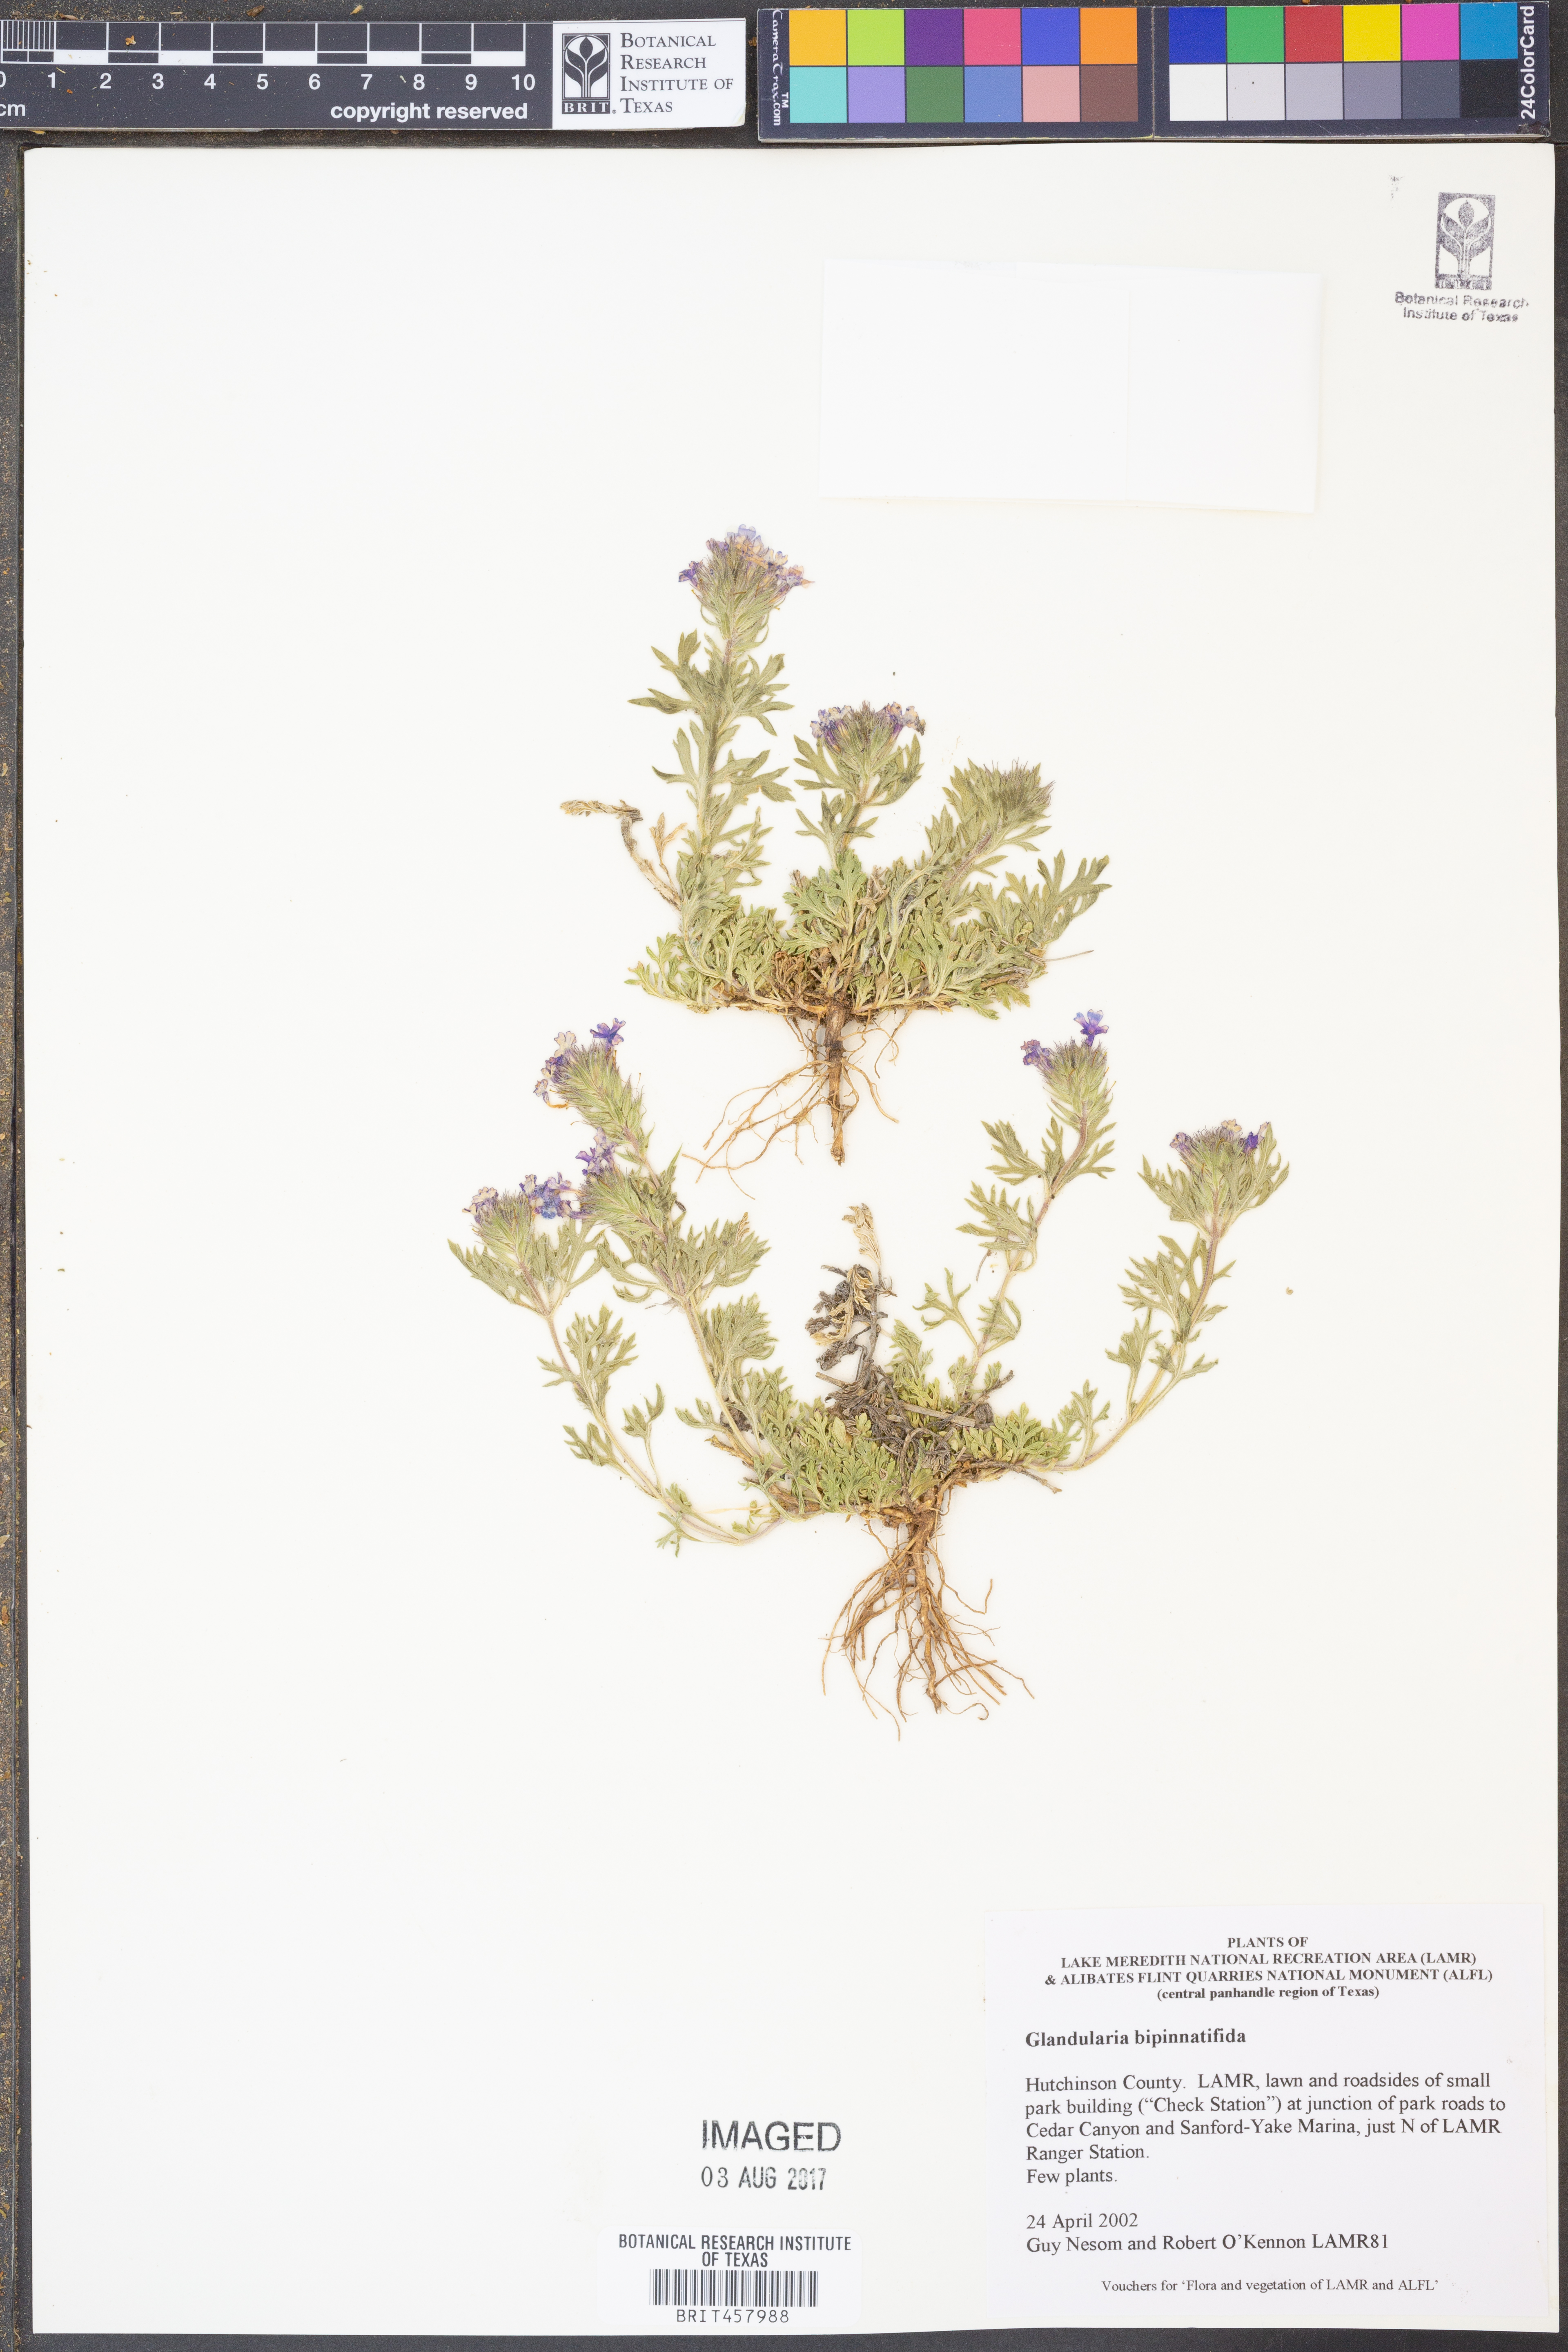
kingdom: Plantae
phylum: Tracheophyta
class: Magnoliopsida
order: Lamiales
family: Verbenaceae
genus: Verbena
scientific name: Verbena bipinnatifida
